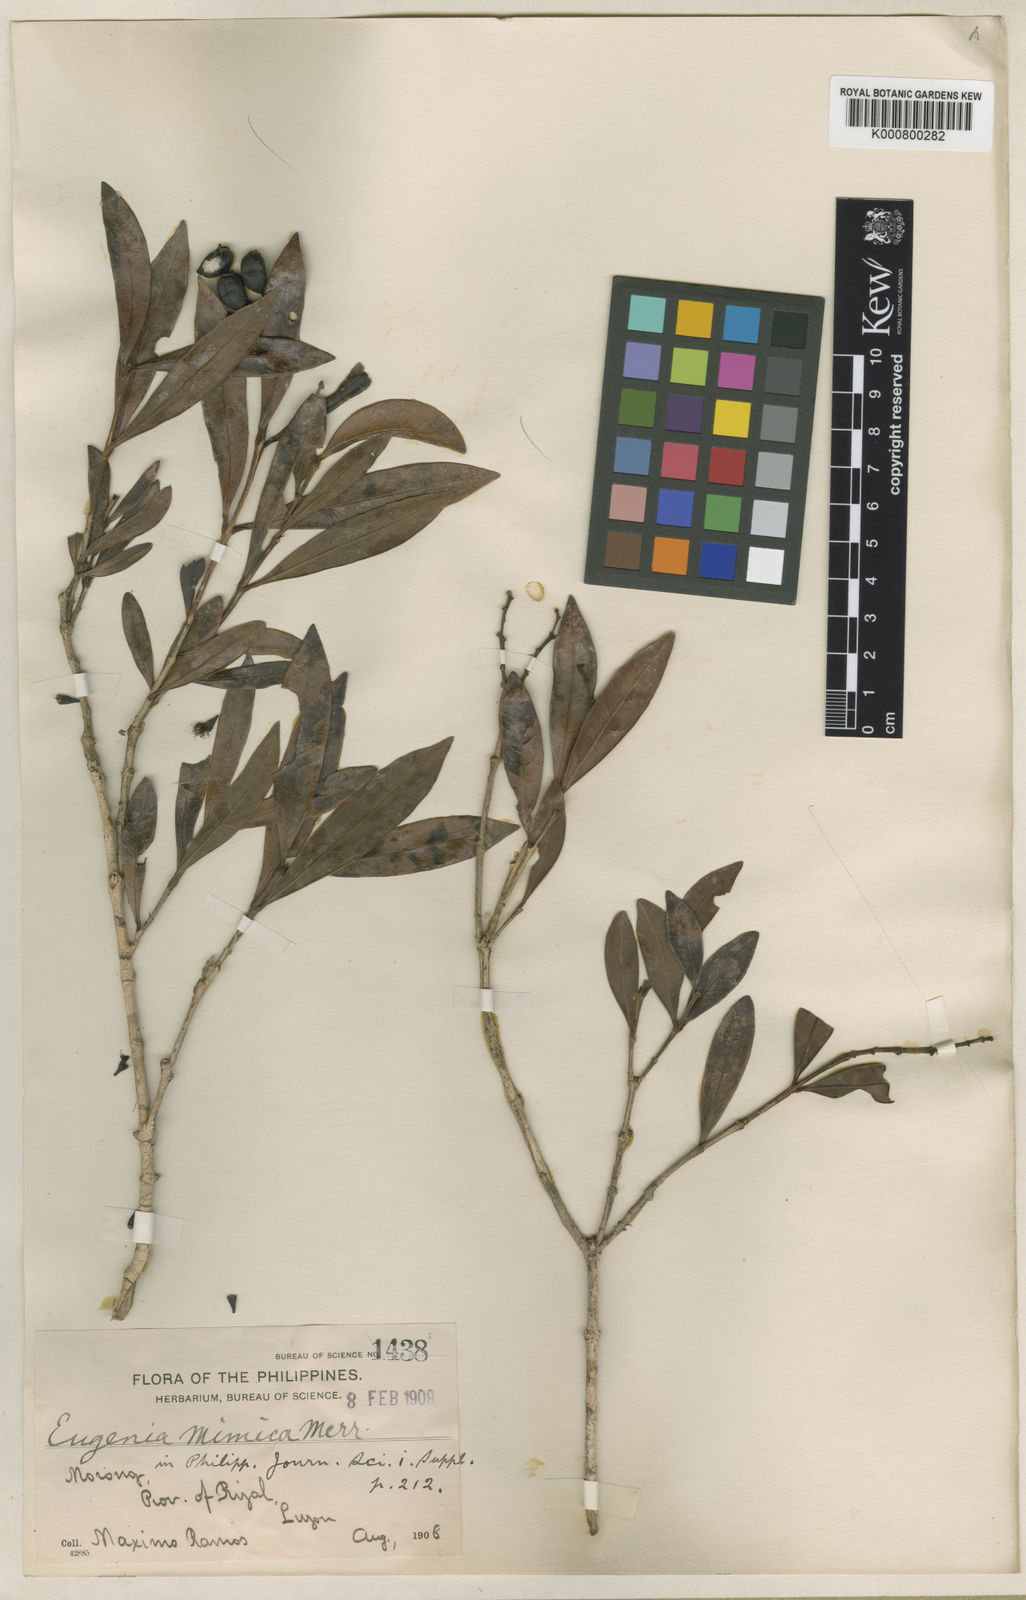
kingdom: Plantae
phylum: Tracheophyta
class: Magnoliopsida
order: Myrtales
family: Myrtaceae
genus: Syzygium
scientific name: Syzygium mimicum
